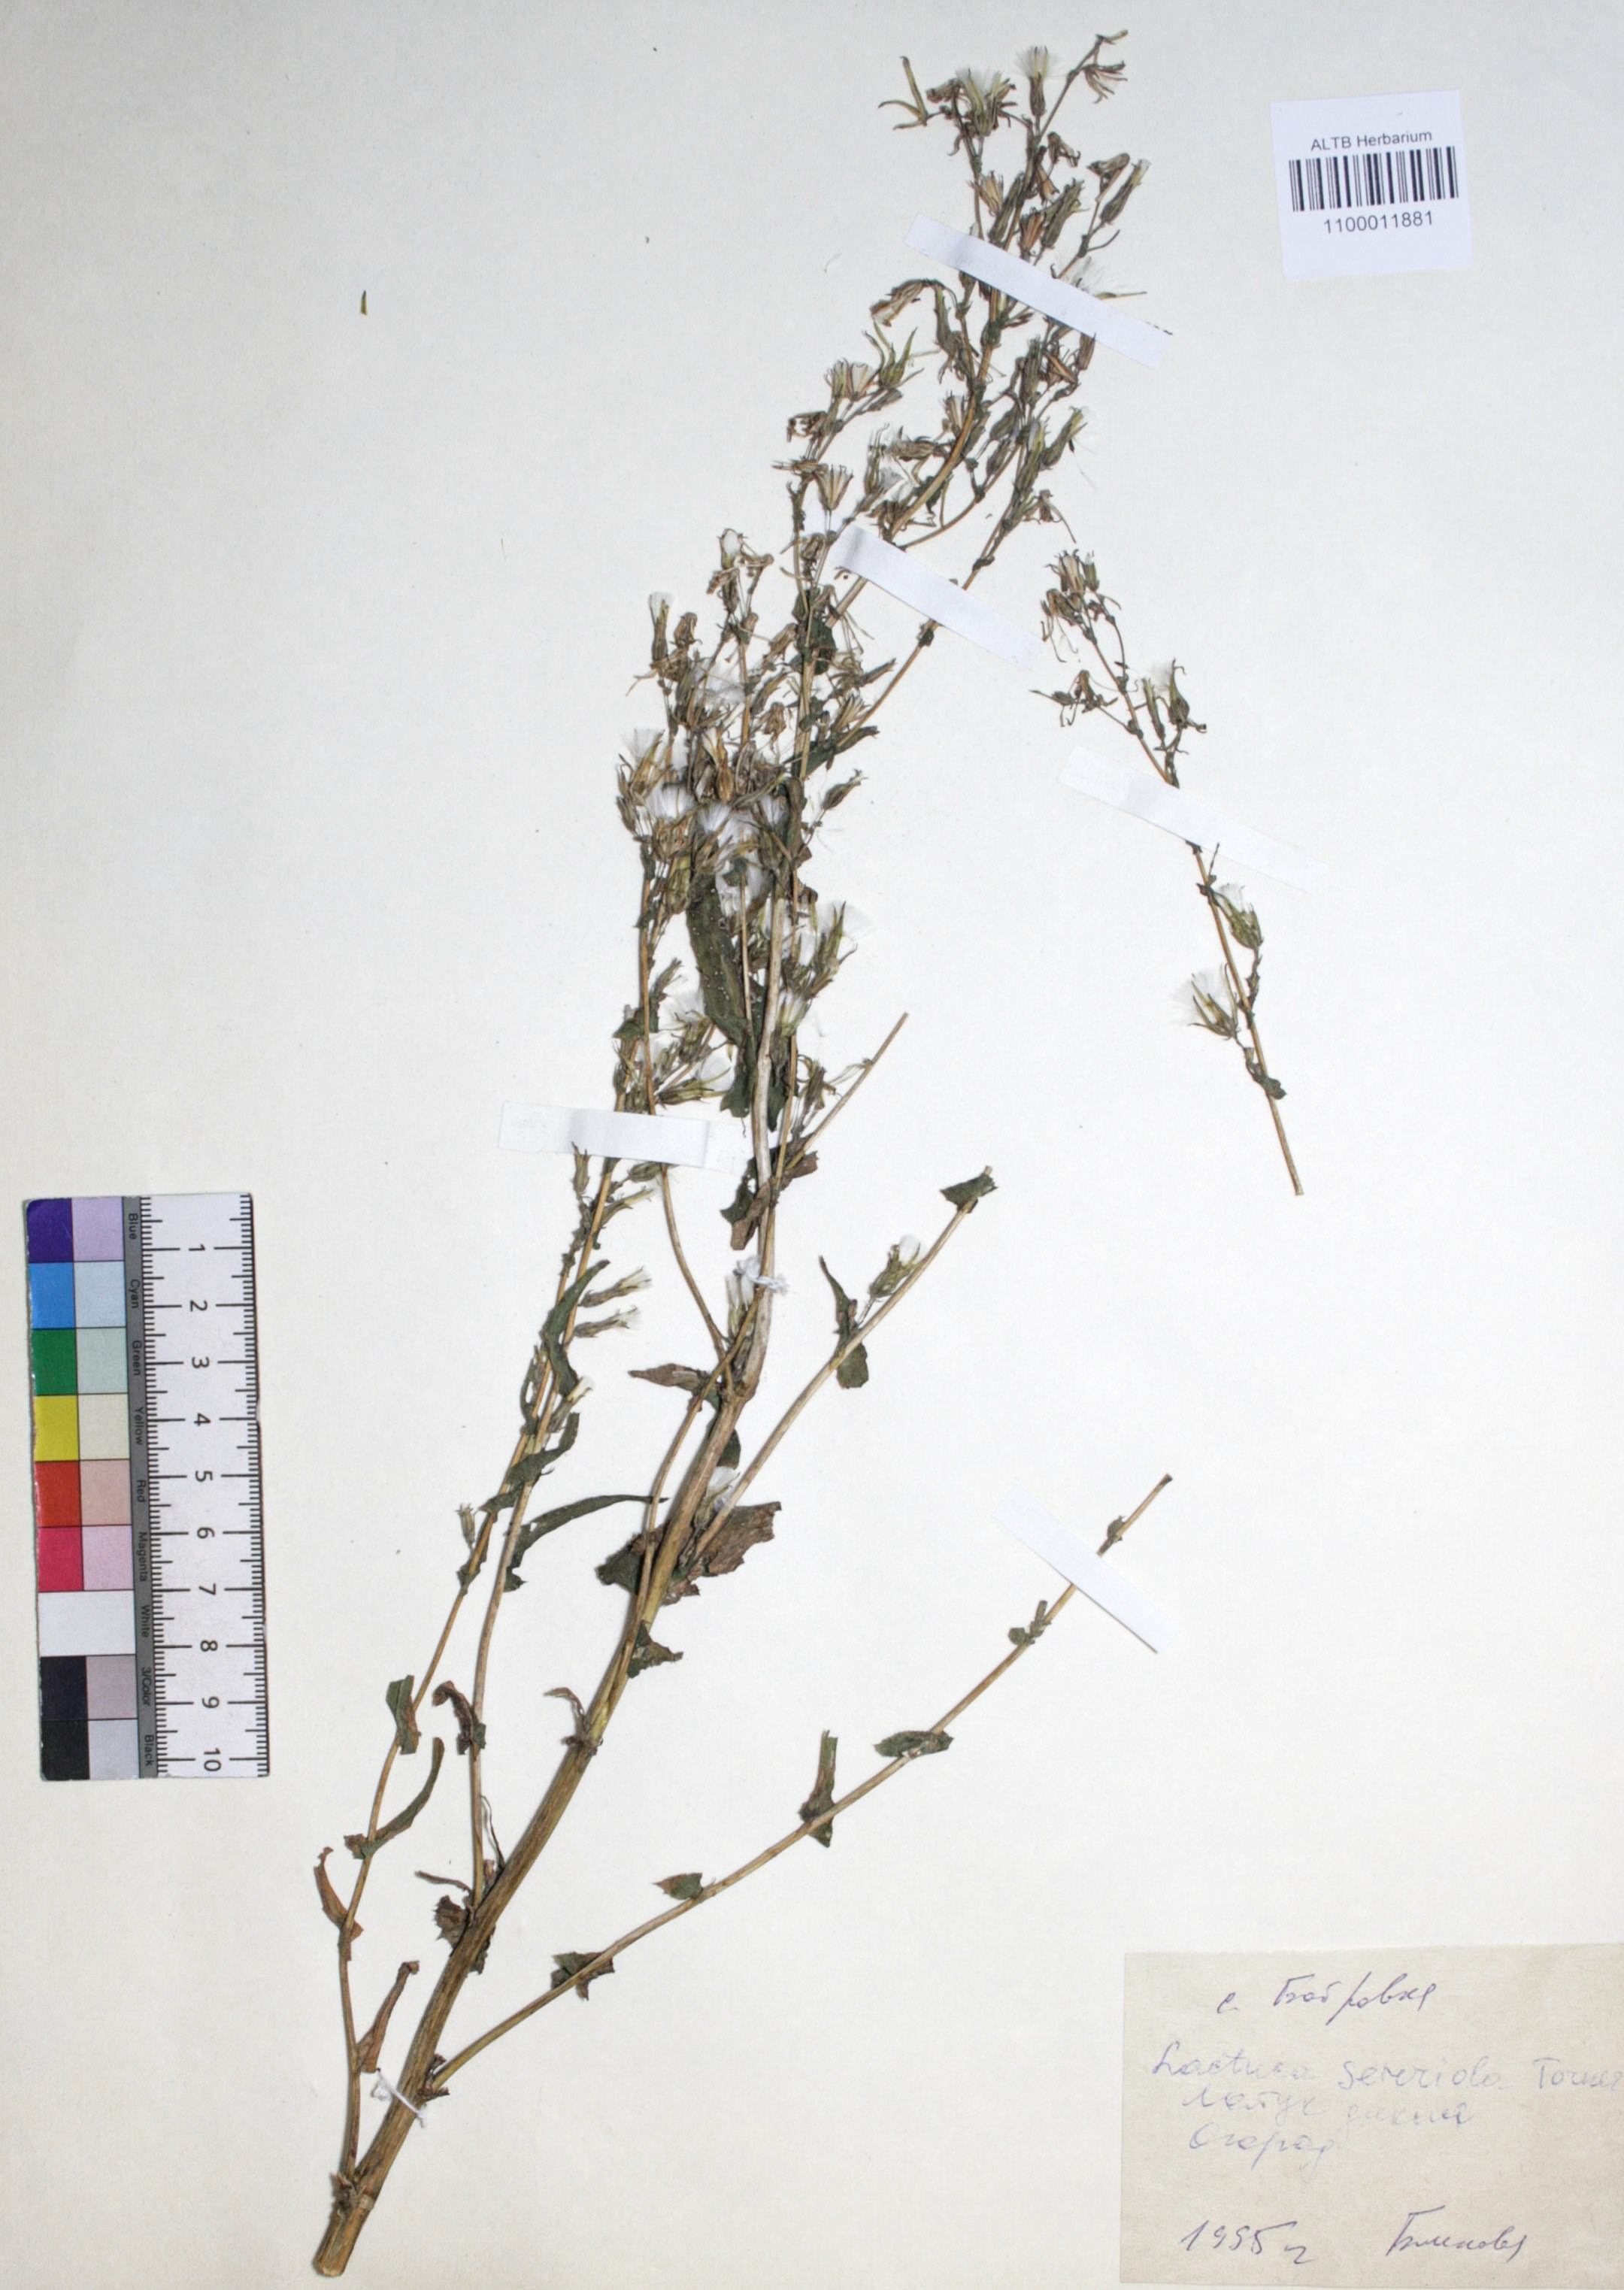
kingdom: Plantae
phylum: Tracheophyta
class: Magnoliopsida
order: Asterales
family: Asteraceae
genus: Lactuca
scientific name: Lactuca serriola
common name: Prickly lettuce
